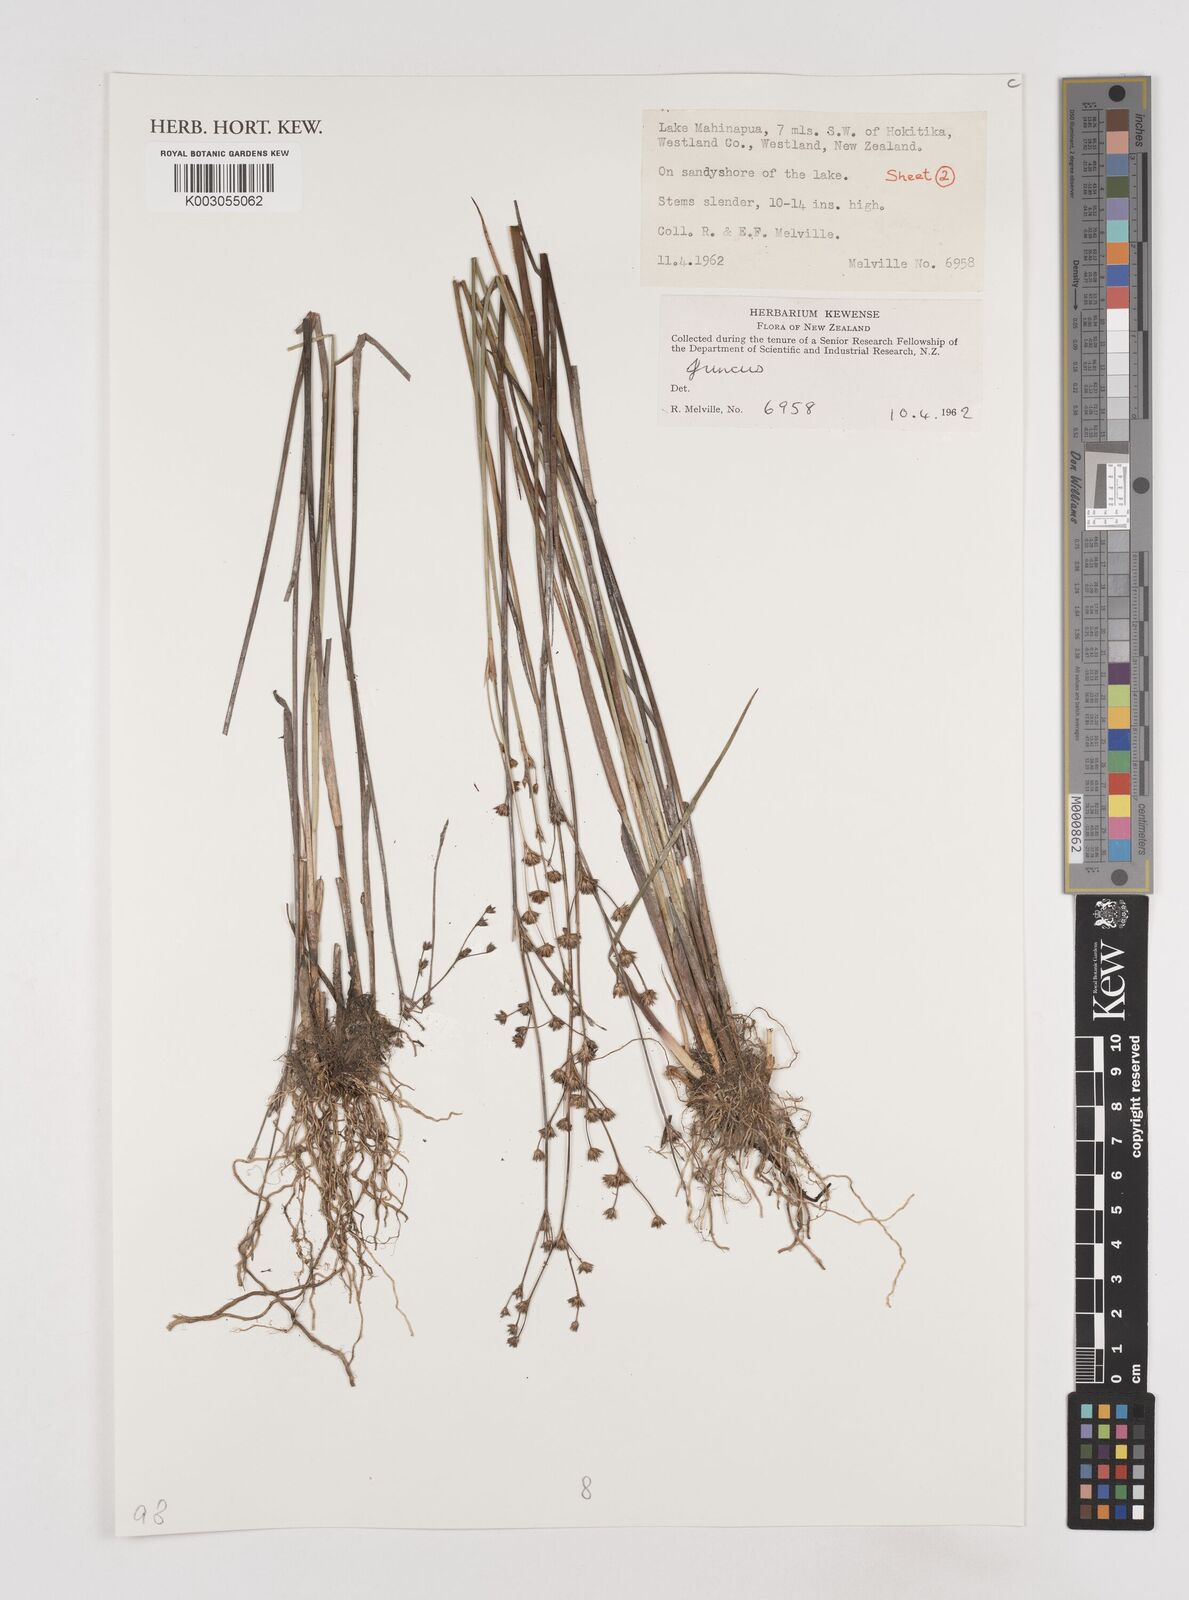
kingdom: Plantae
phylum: Tracheophyta
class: Liliopsida
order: Poales
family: Juncaceae
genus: Juncus
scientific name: Juncus
